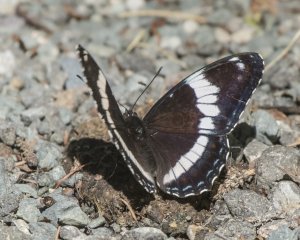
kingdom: Animalia
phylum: Arthropoda
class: Insecta
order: Lepidoptera
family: Nymphalidae
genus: Limenitis
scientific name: Limenitis arthemis
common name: Red-spotted Admiral
